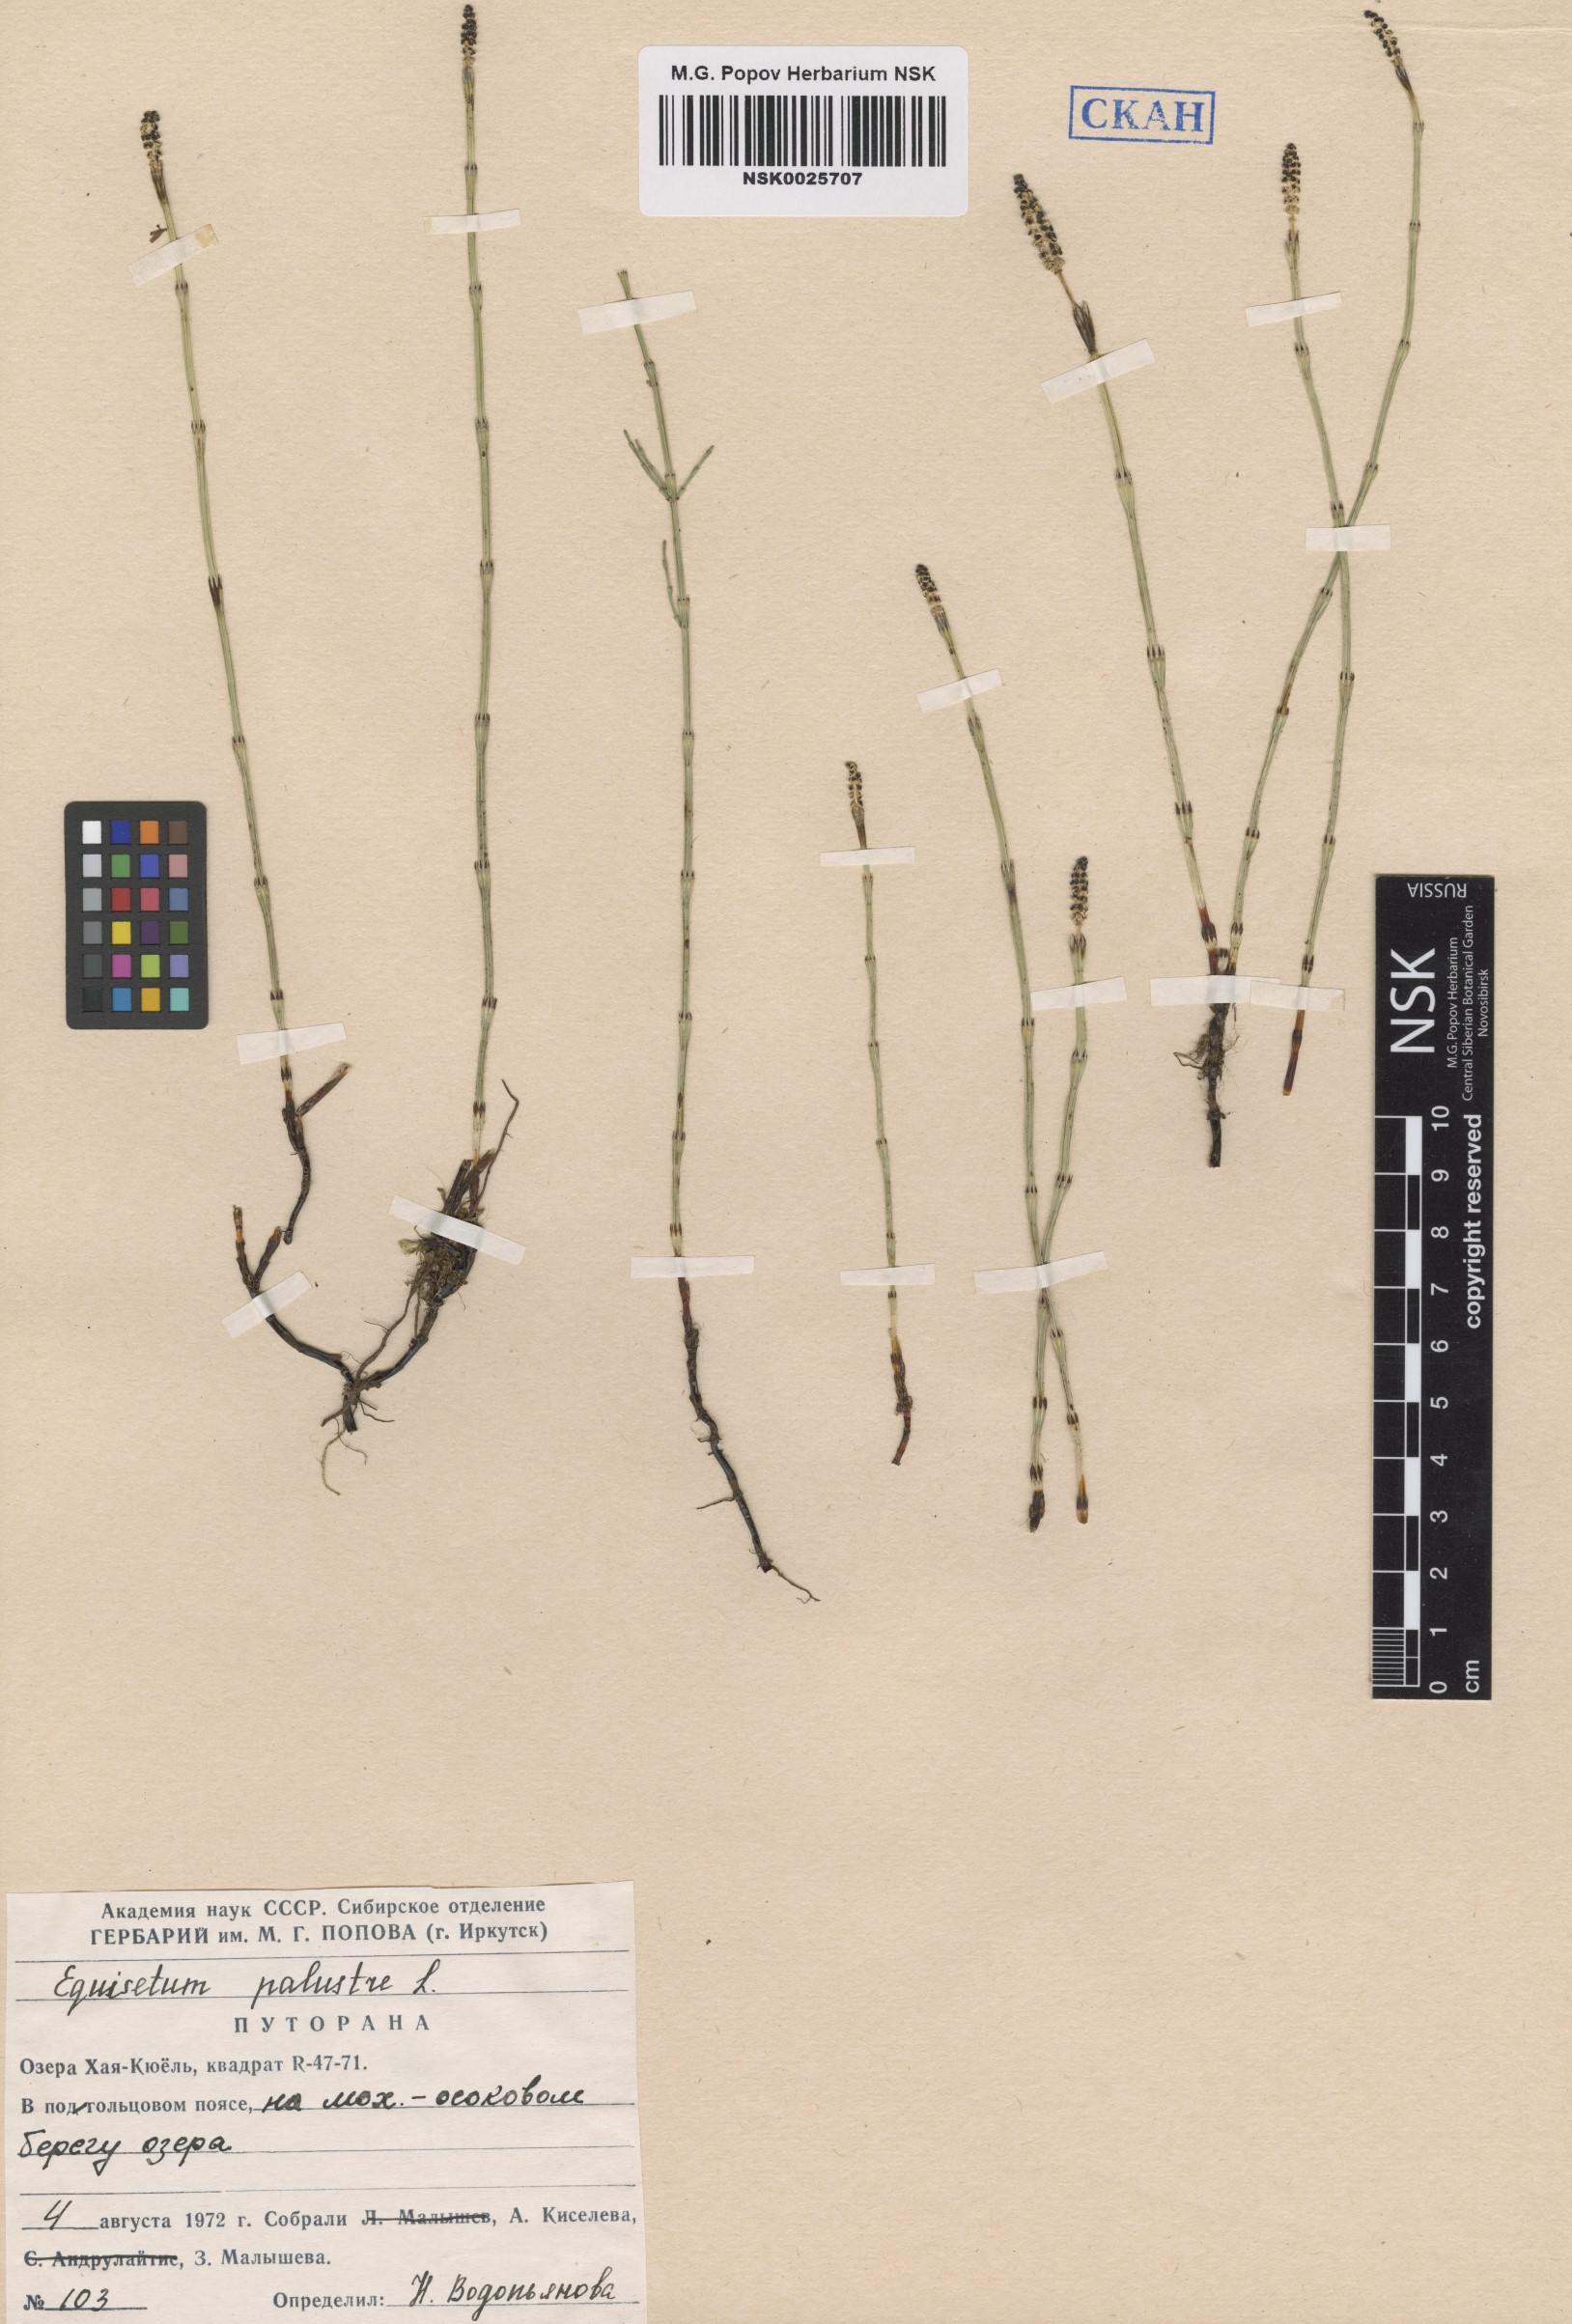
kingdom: Plantae
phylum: Tracheophyta
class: Polypodiopsida
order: Equisetales
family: Equisetaceae
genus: Equisetum
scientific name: Equisetum palustre
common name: Marsh horsetail
